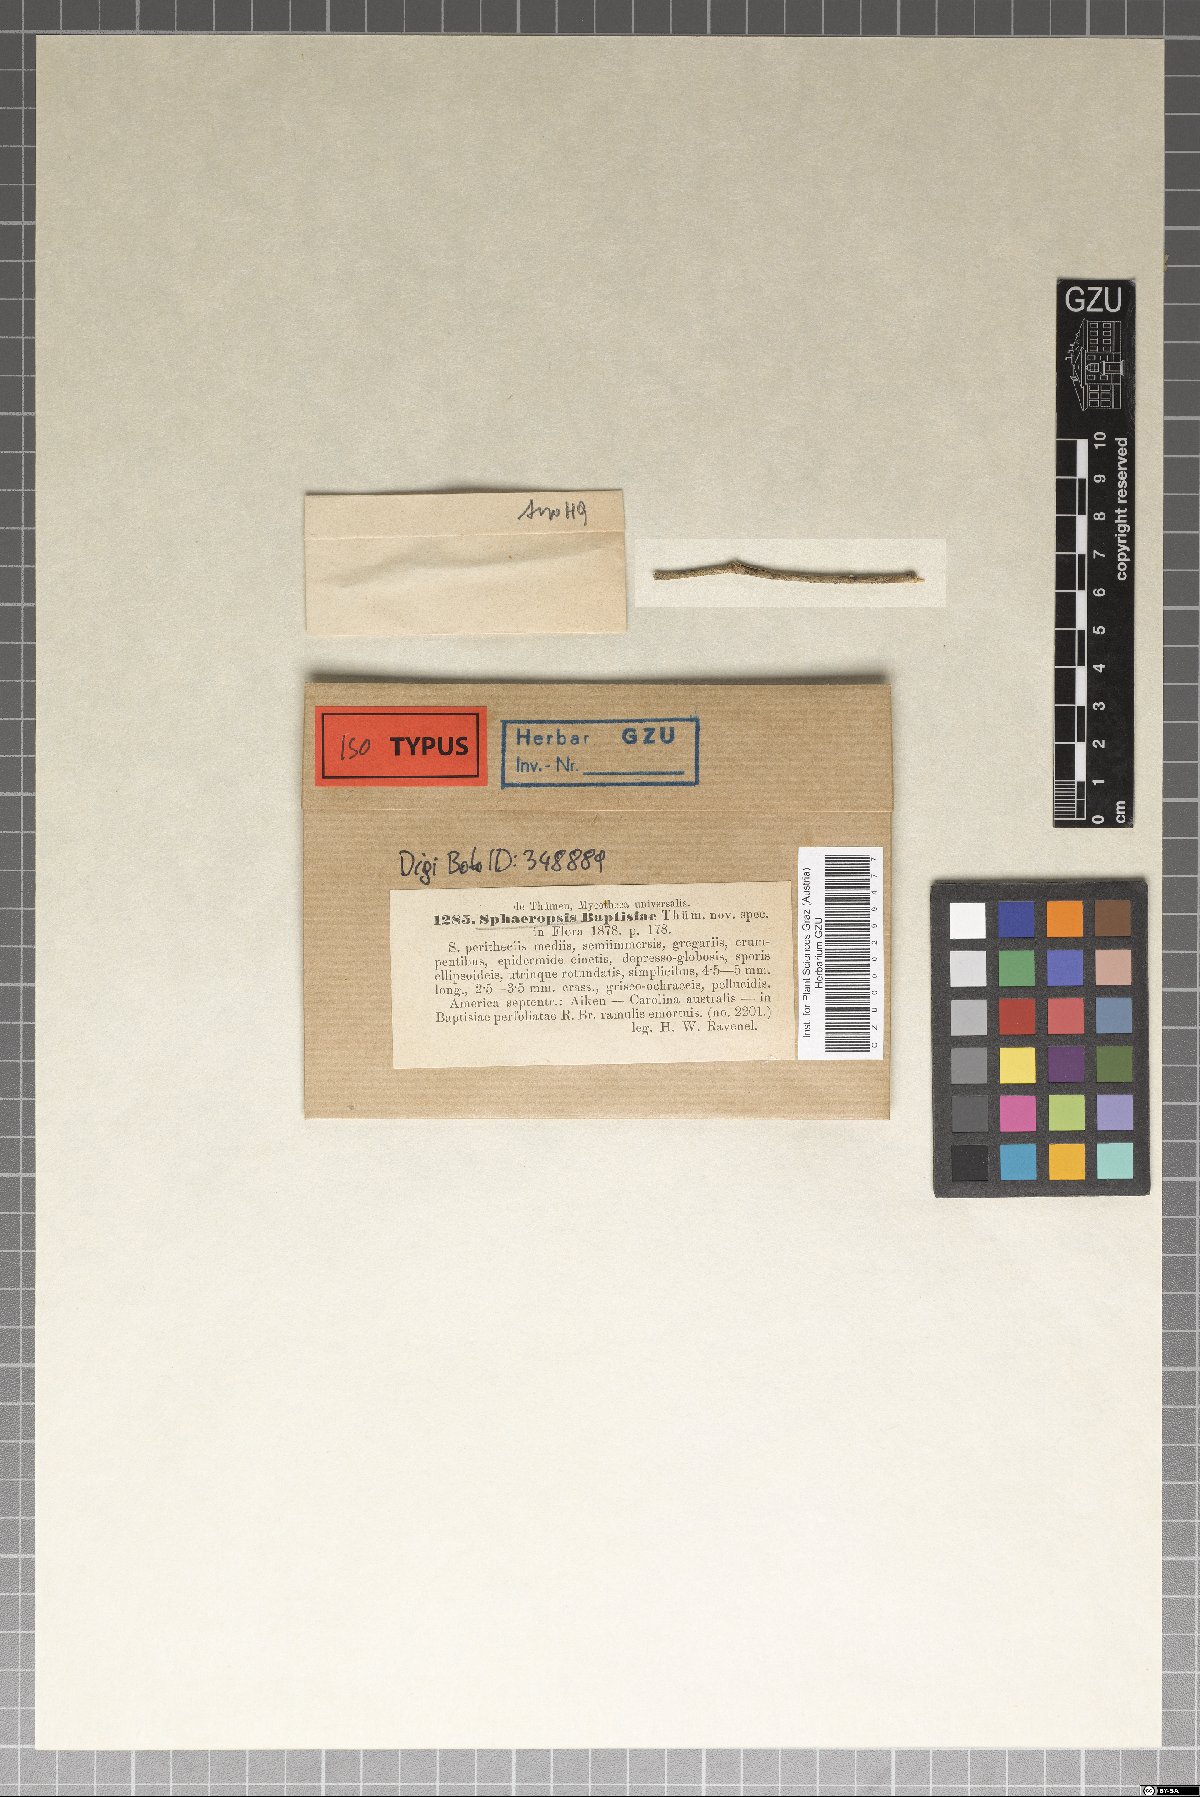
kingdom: Fungi
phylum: Ascomycota
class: Dothideomycetes
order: Pleosporales
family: Coniothyriaceae
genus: Coniothyrium
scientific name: Coniothyrium baptisiae
